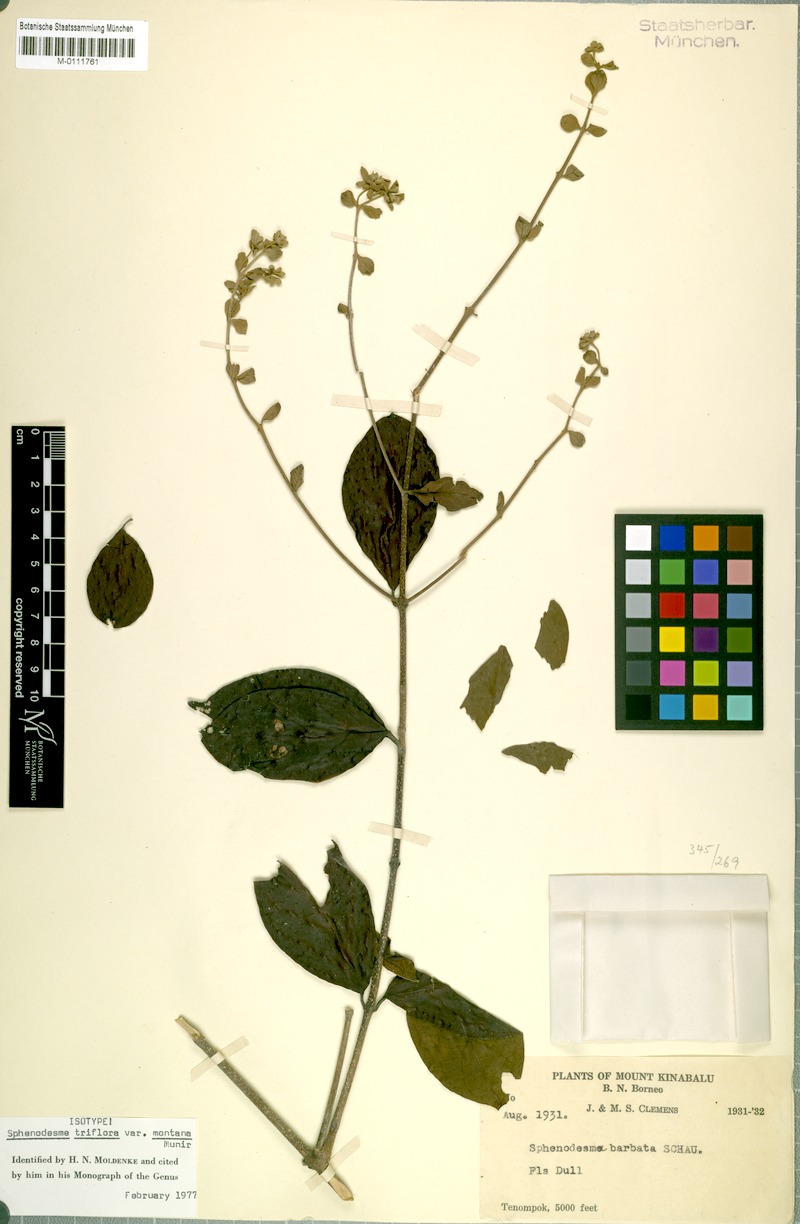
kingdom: Plantae
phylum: Tracheophyta
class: Magnoliopsida
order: Lamiales
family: Lamiaceae
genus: Sphenodesme
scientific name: Sphenodesme triflora
